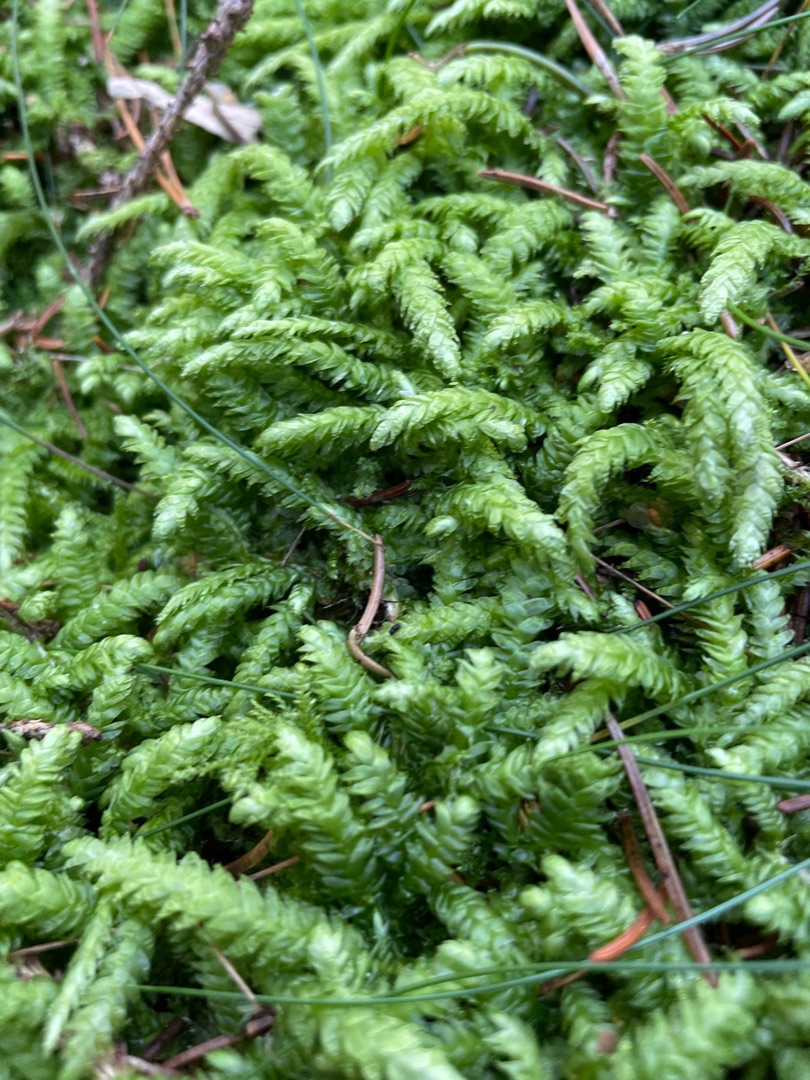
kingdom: Plantae
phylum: Bryophyta
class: Bryopsida
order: Hypnales
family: Plagiotheciaceae
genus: Plagiothecium
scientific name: Plagiothecium undulatum
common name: Bølget tæppemos
